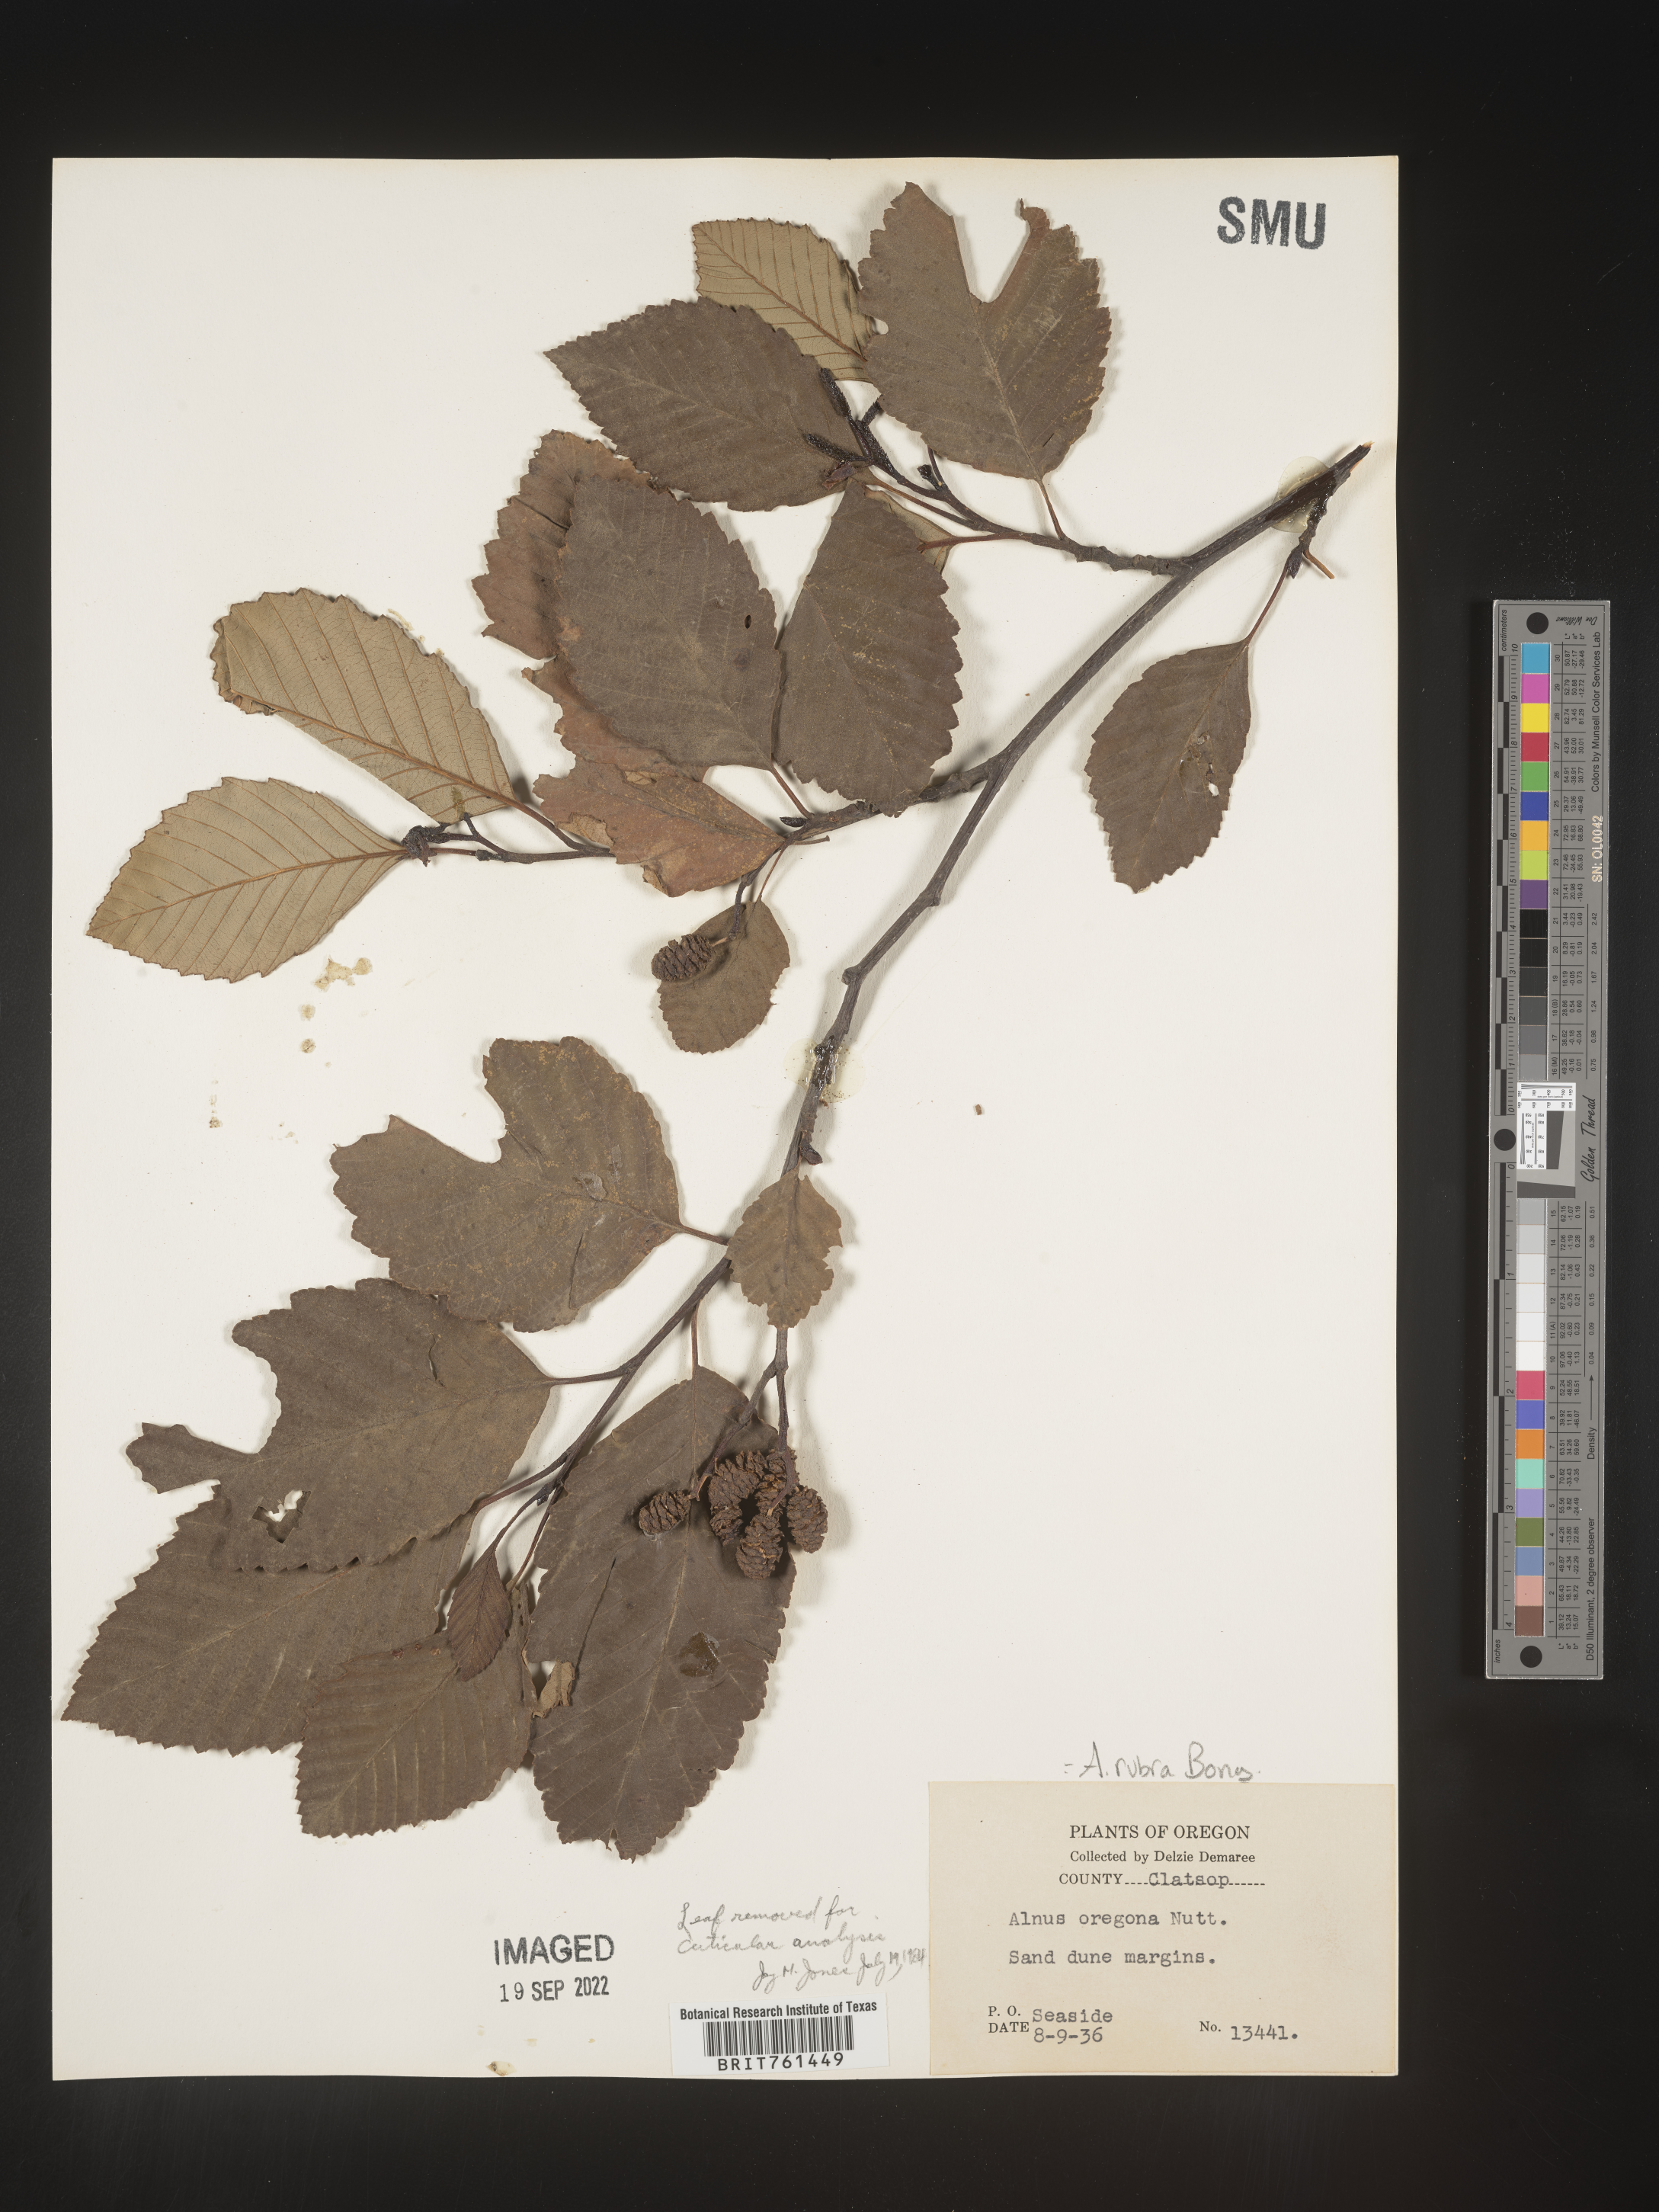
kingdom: Plantae
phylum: Tracheophyta
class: Magnoliopsida
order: Fagales
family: Betulaceae
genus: Alnus
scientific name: Alnus rubra
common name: Red alder
